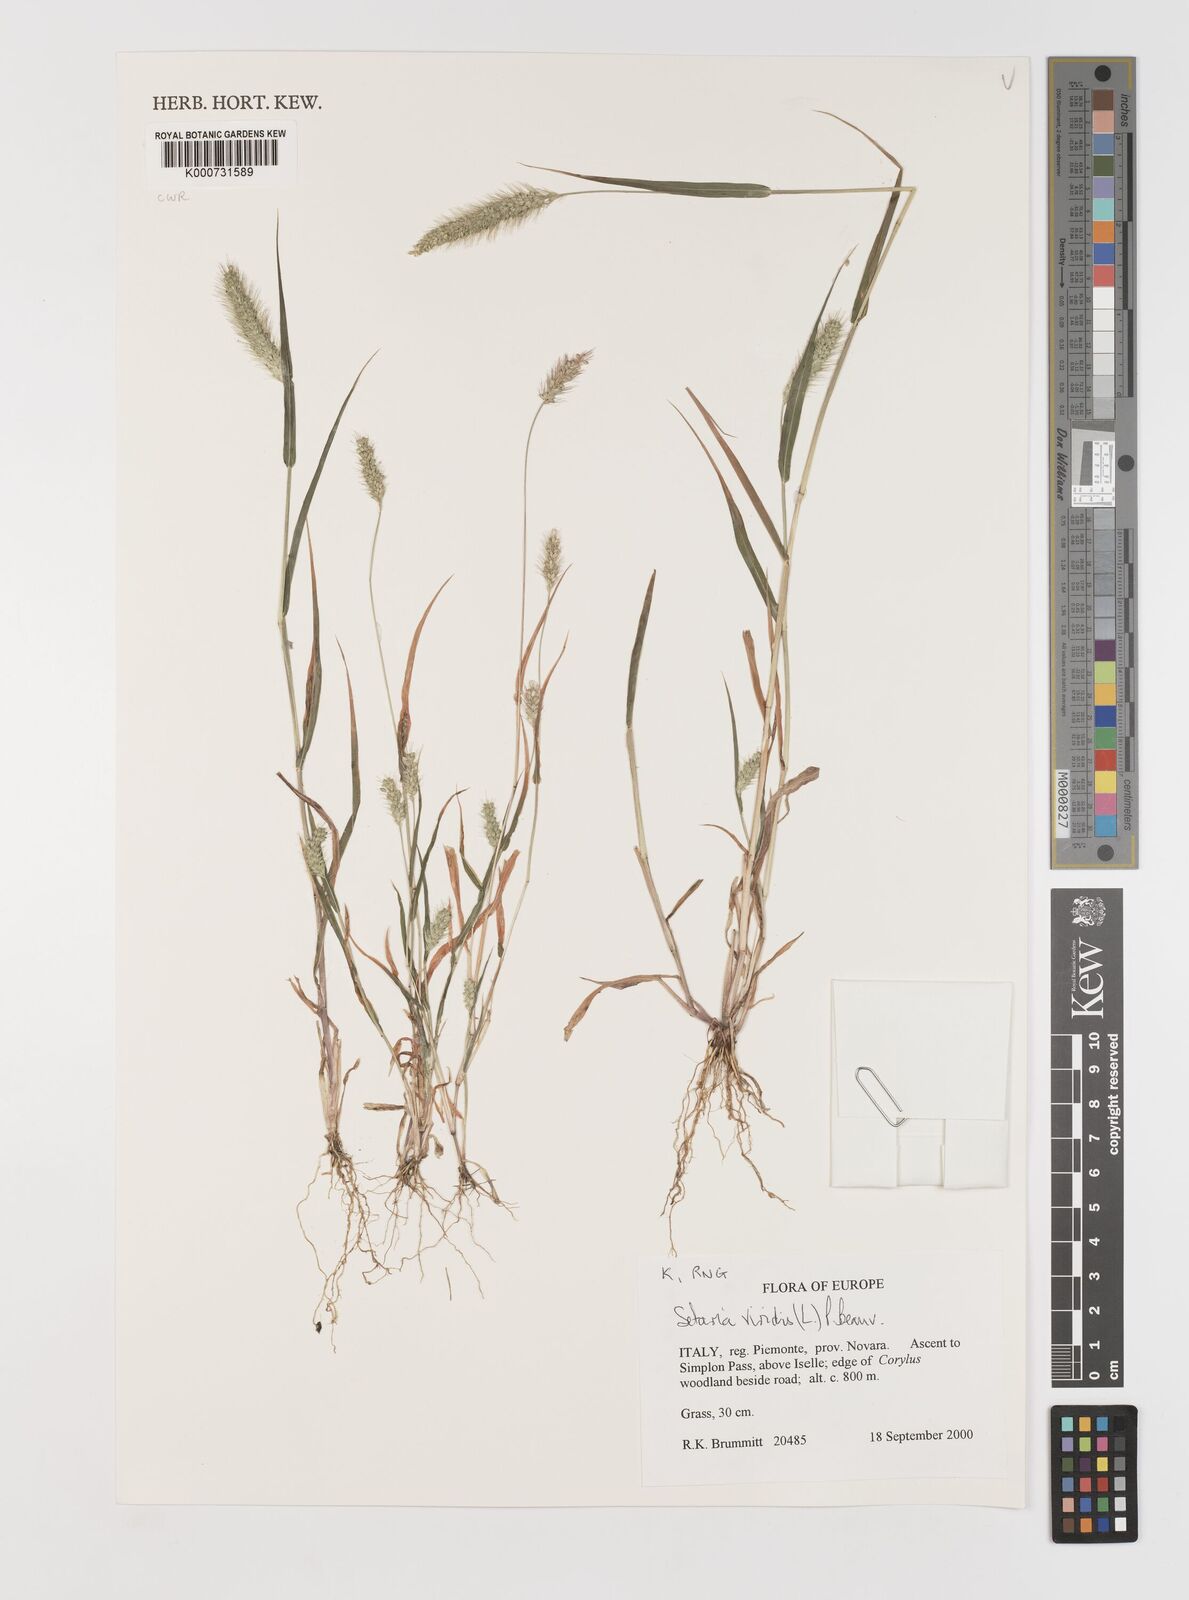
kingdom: Plantae
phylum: Tracheophyta
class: Liliopsida
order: Poales
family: Poaceae
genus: Setaria
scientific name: Setaria viridis
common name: Green bristlegrass
